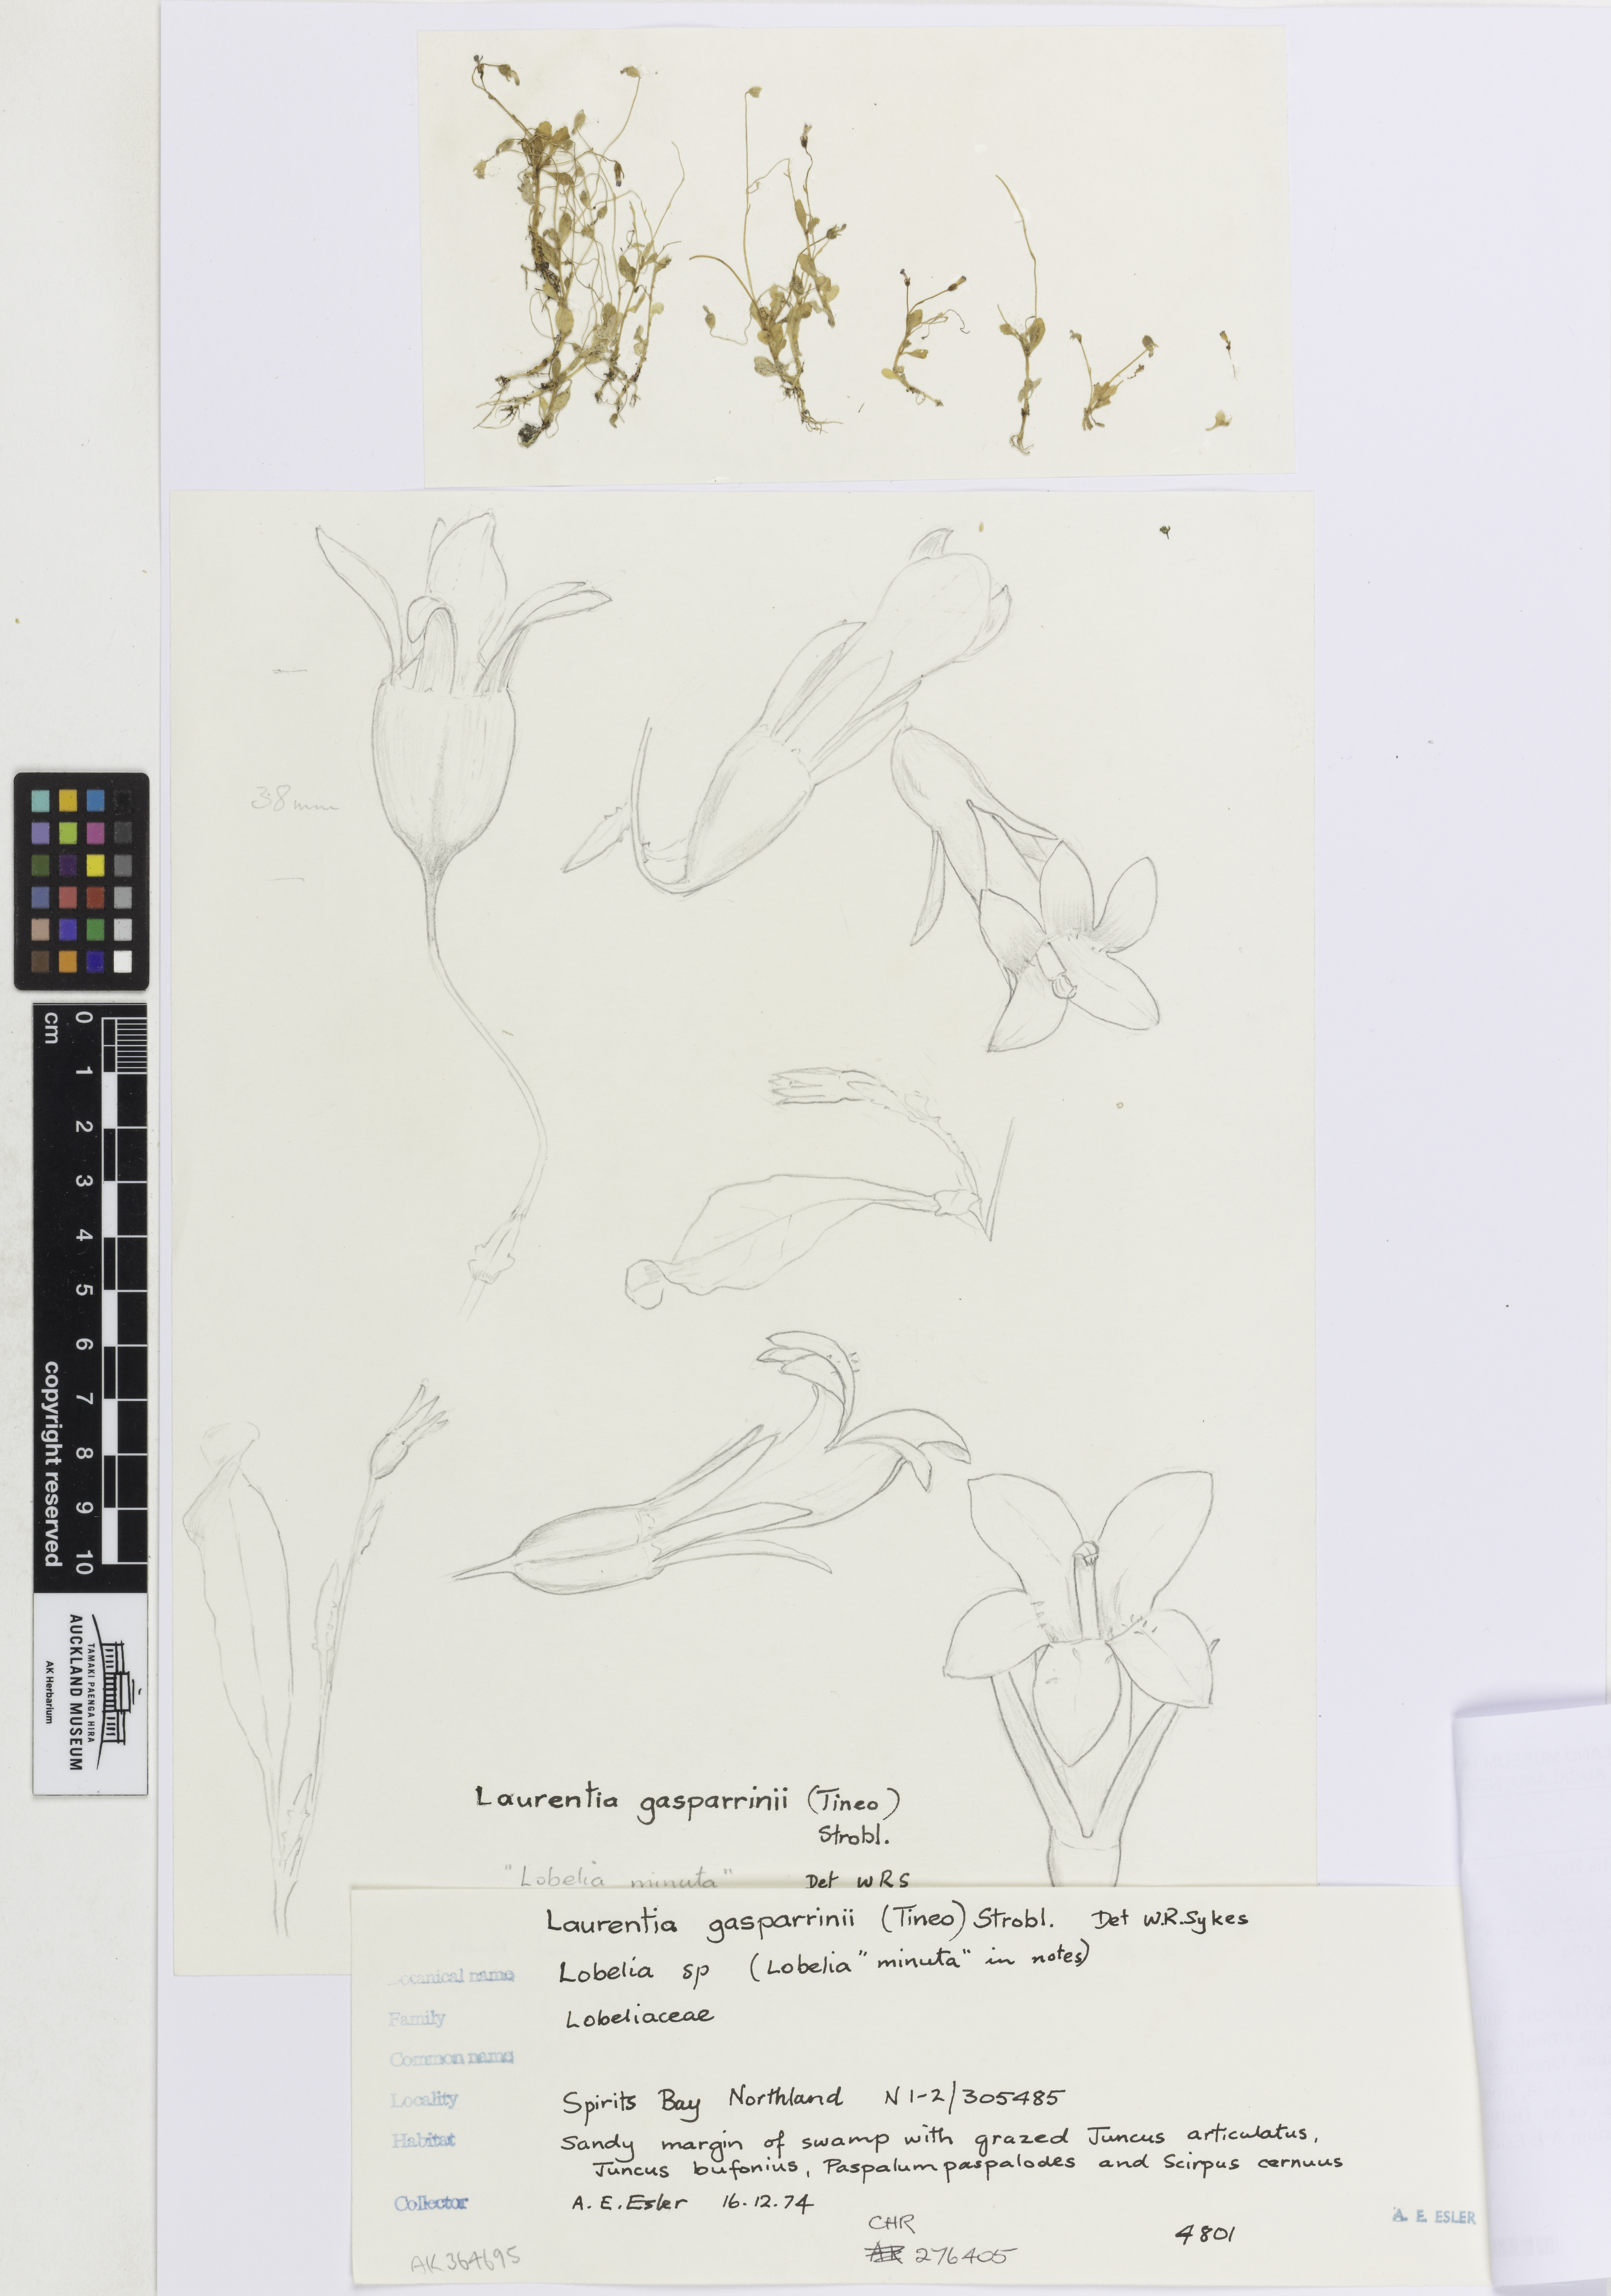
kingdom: Plantae
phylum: Tracheophyta
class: Magnoliopsida
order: Asterales
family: Campanulaceae
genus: Solenopsis
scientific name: Solenopsis laurentia
